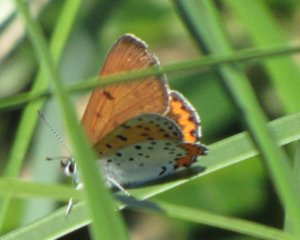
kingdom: Animalia
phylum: Arthropoda
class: Insecta
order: Lepidoptera
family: Sesiidae
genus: Sesia
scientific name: Sesia Lycaena hyllus
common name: Bronze Copper
